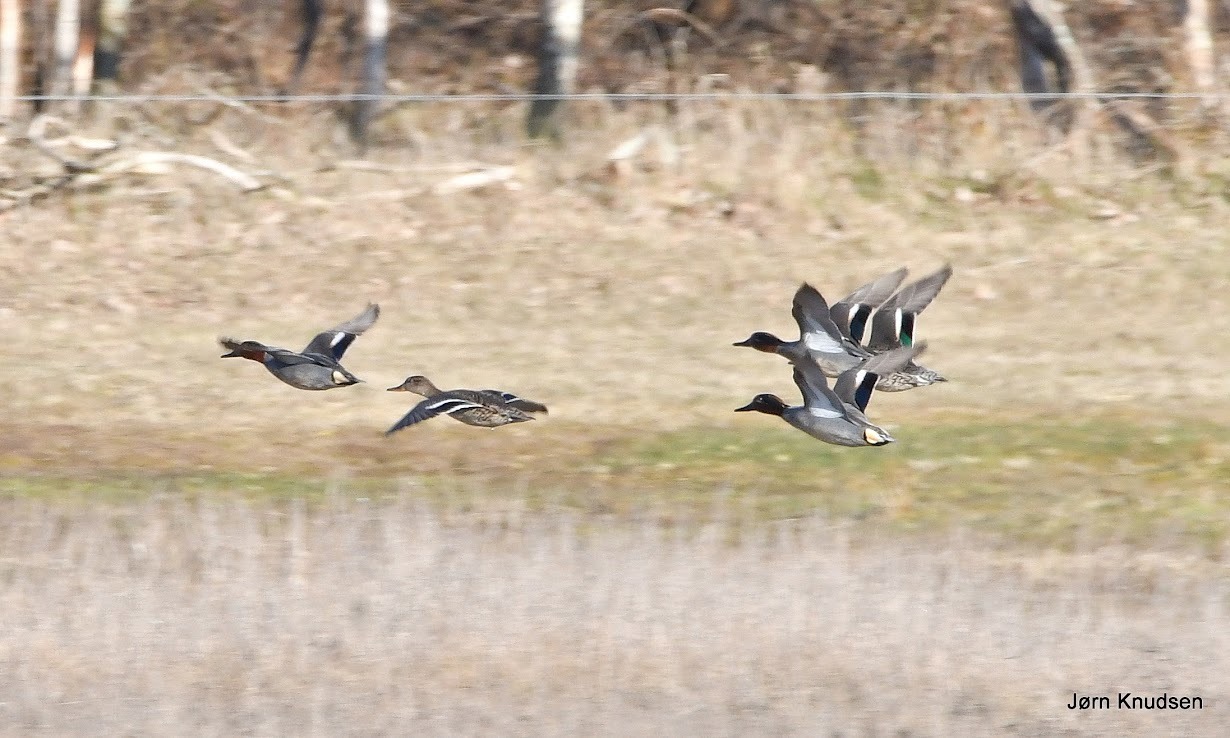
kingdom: Animalia
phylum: Chordata
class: Aves
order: Anseriformes
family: Anatidae
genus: Anas
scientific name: Anas crecca
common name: Krikand
